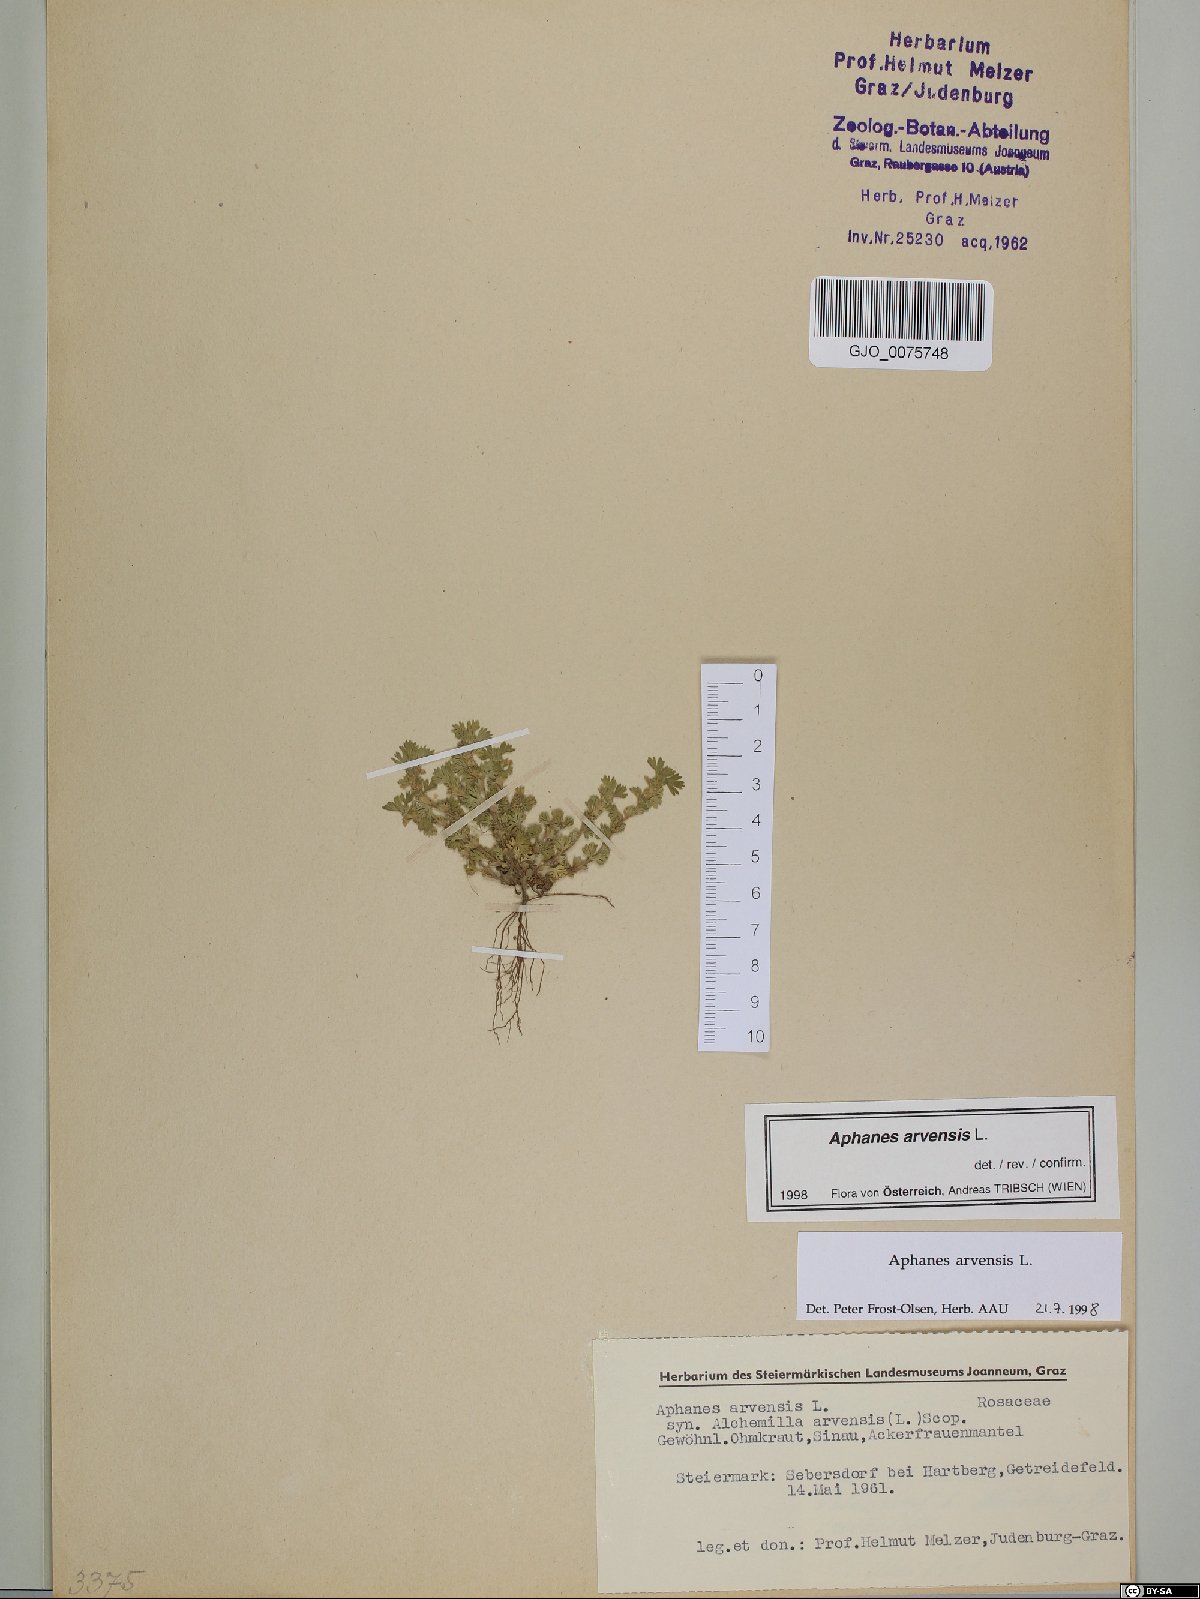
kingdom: Plantae
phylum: Tracheophyta
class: Magnoliopsida
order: Rosales
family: Rosaceae
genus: Aphanes
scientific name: Aphanes arvensis
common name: Parsley-piert
